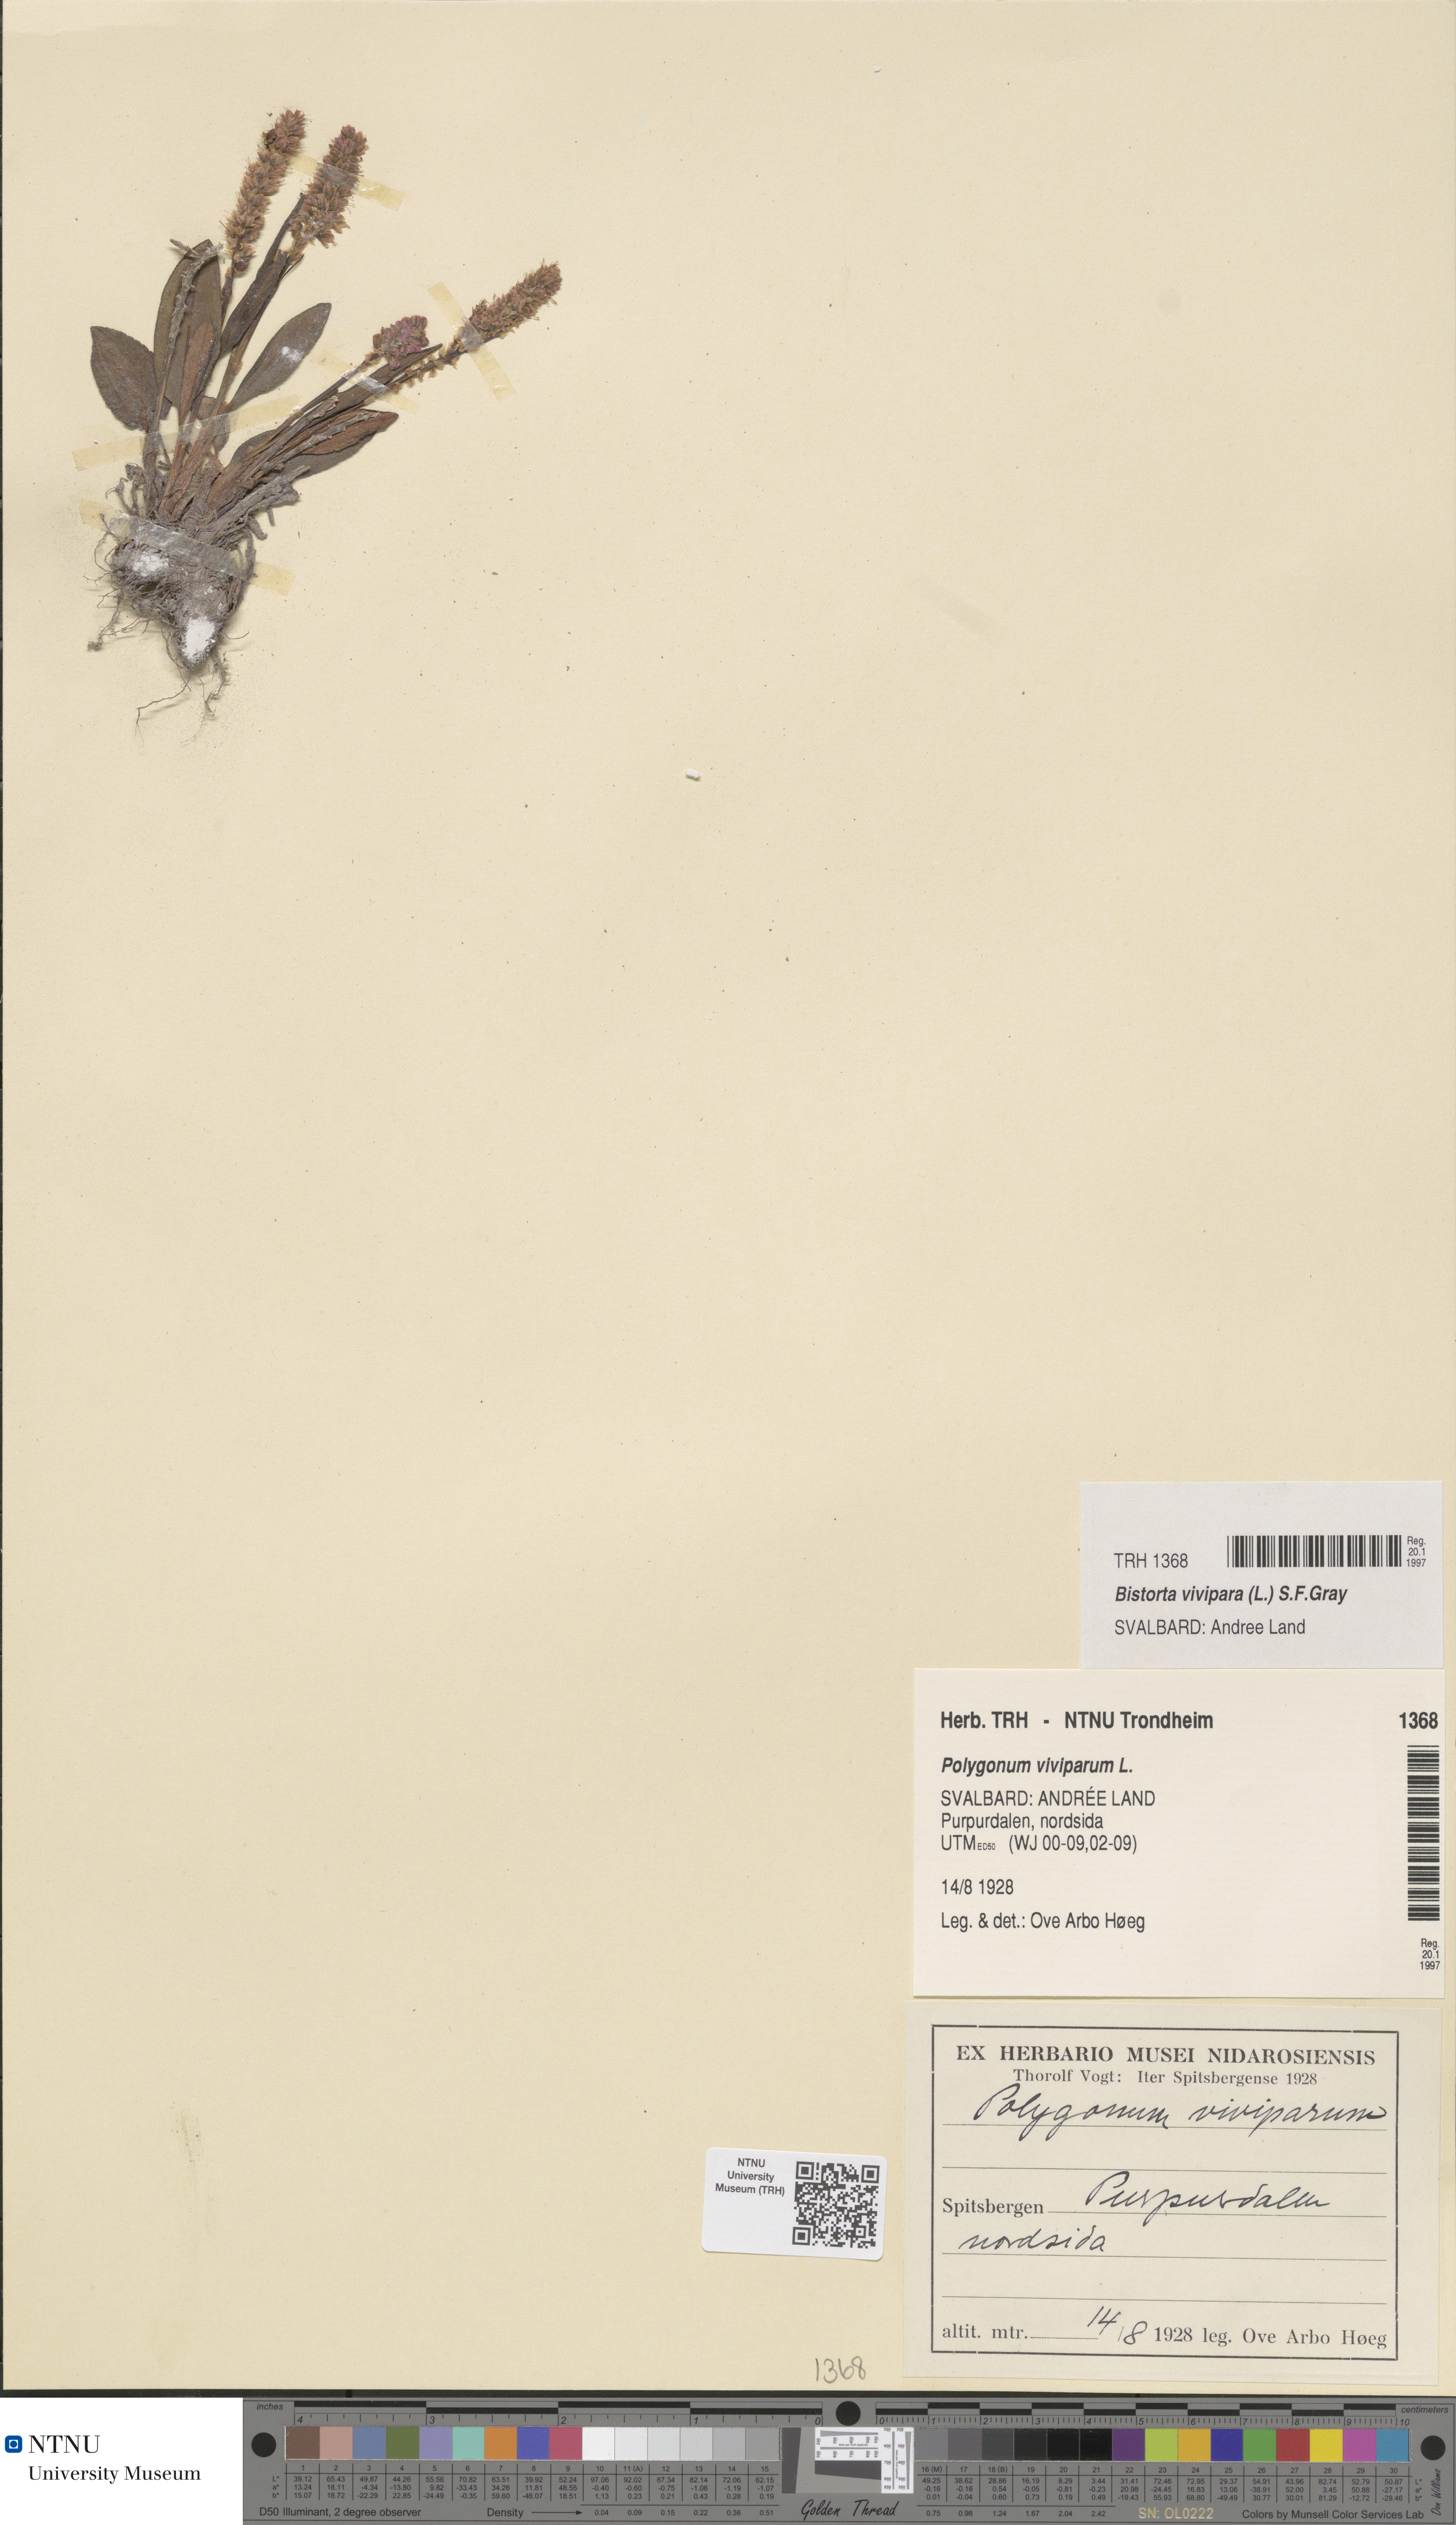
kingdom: Plantae
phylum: Tracheophyta
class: Magnoliopsida
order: Caryophyllales
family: Polygonaceae
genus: Bistorta
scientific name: Bistorta vivipara
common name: Alpine bistort
